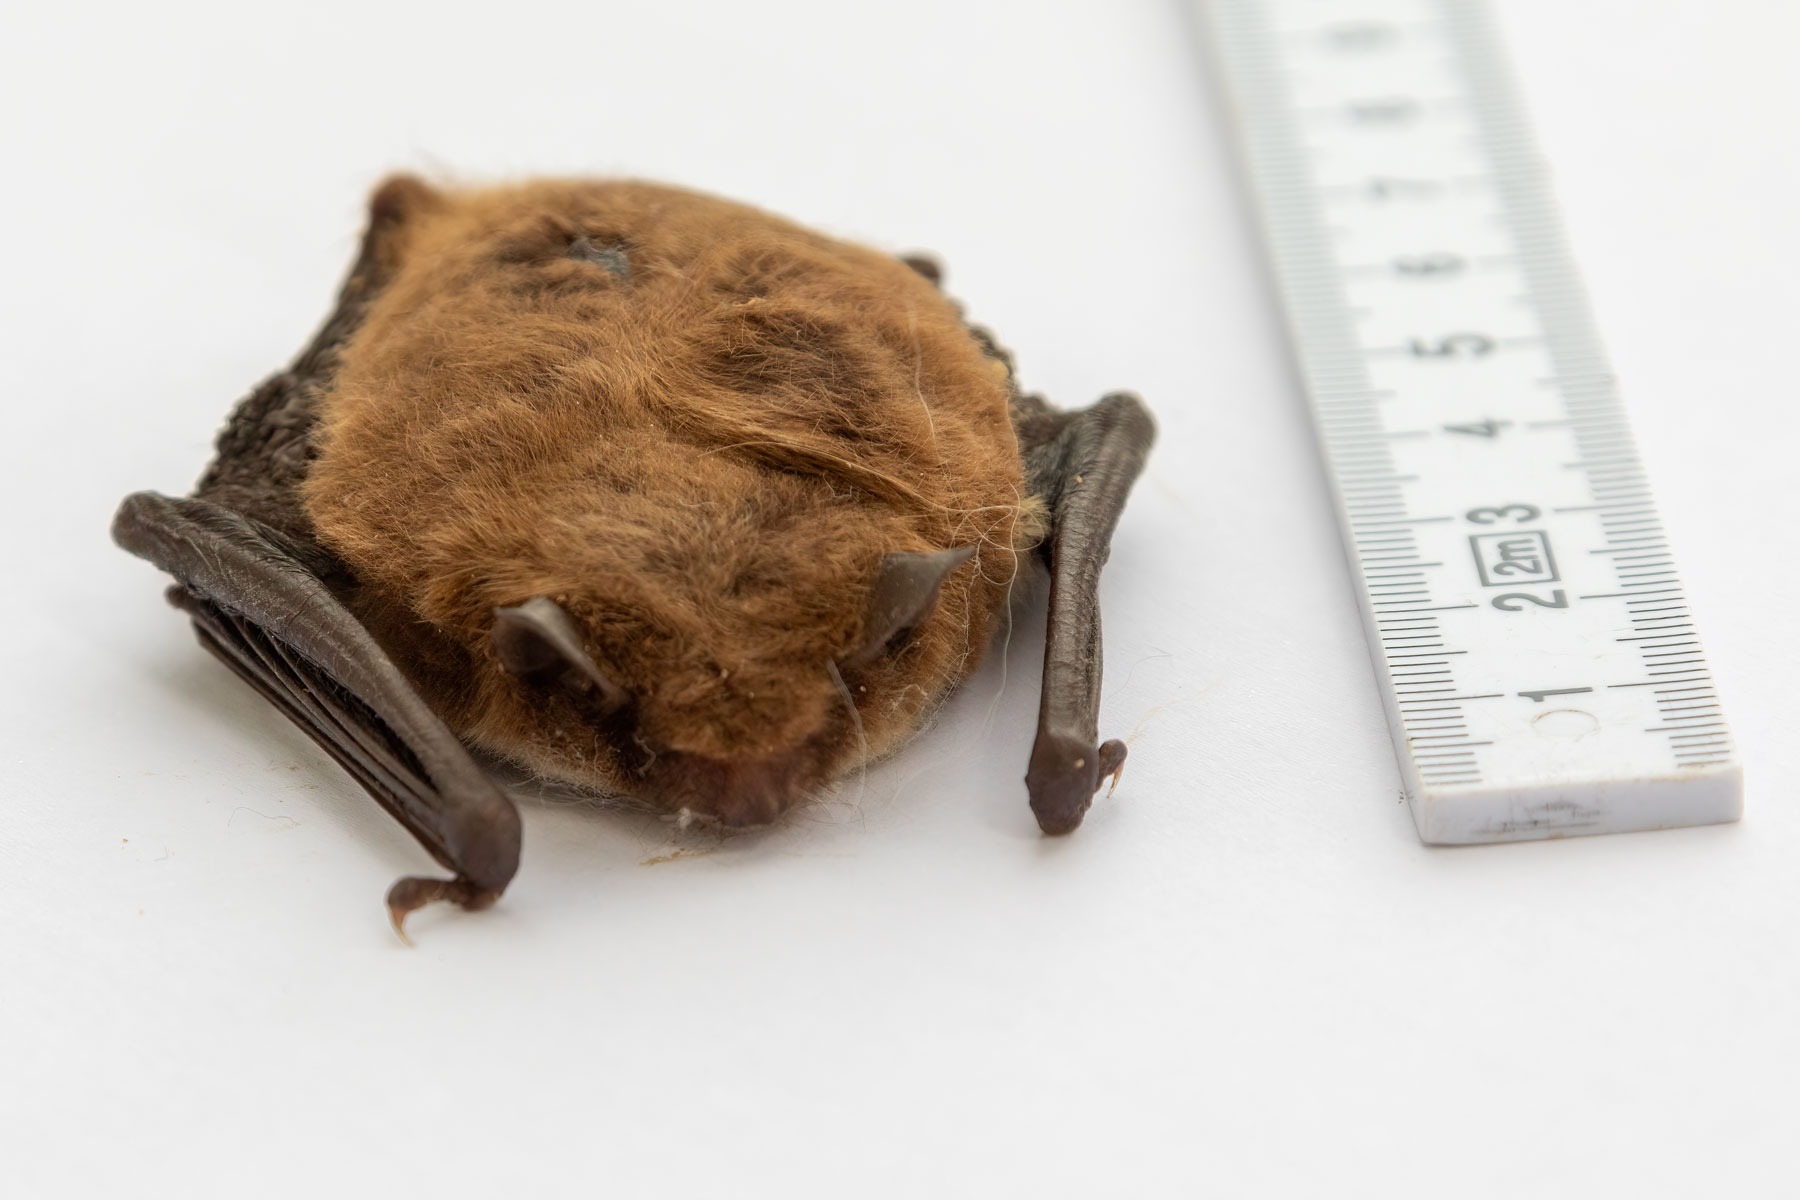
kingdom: Animalia
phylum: Chordata
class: Mammalia
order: Chiroptera
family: Vespertilionidae
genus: Myotis
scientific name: Myotis daubentonii
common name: Vandflagermus
